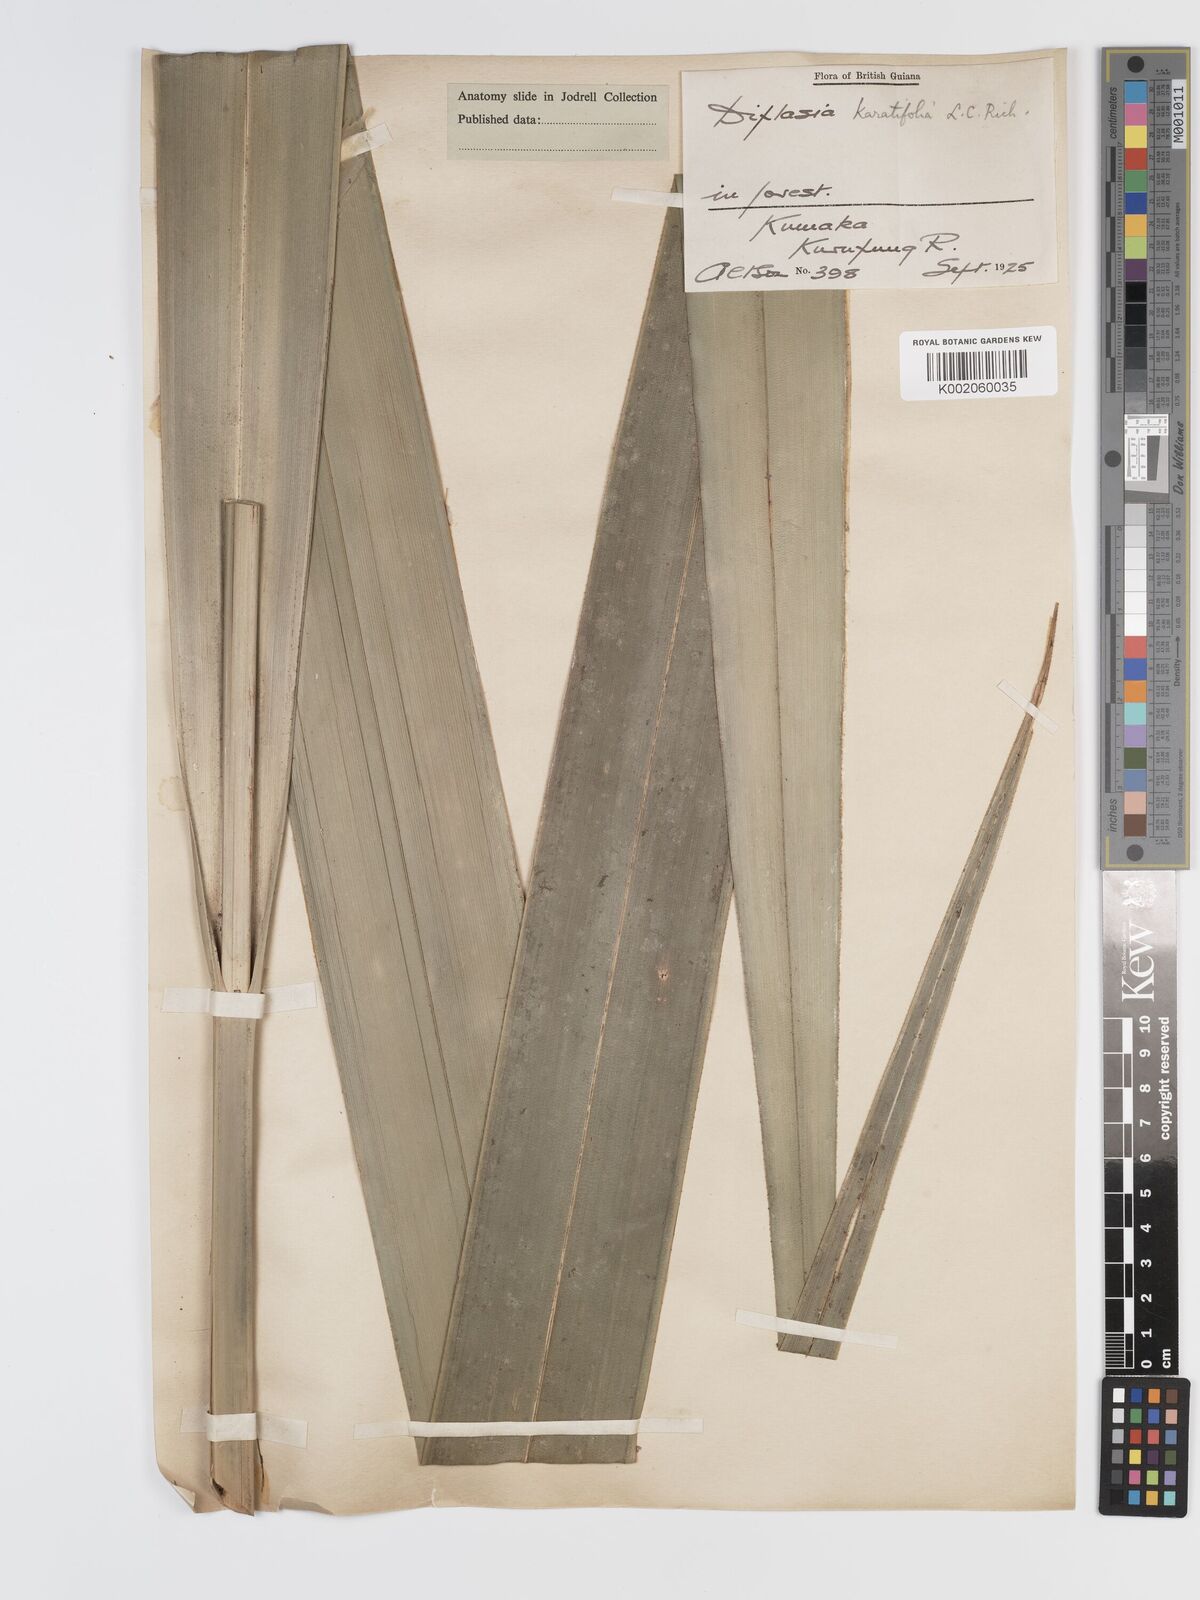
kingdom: Plantae
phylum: Tracheophyta
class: Liliopsida
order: Poales
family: Cyperaceae
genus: Diplasia
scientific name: Diplasia karatifolia
